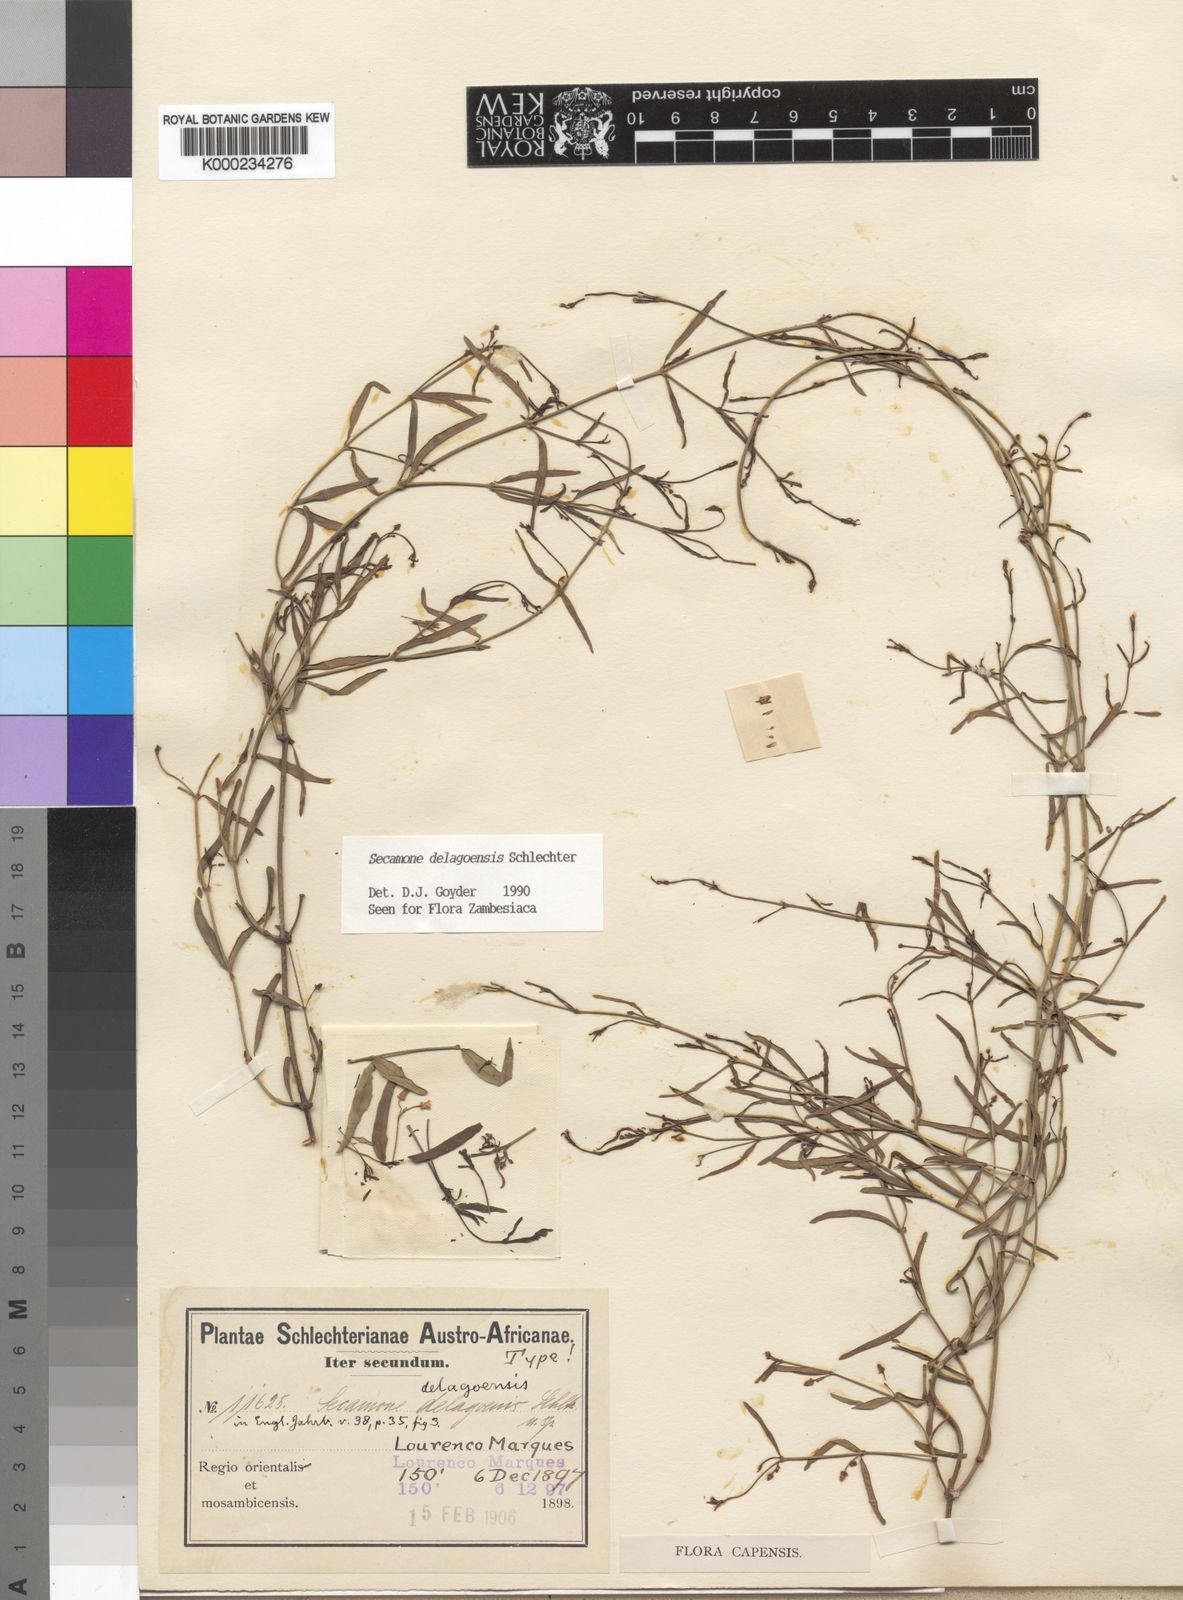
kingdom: Plantae
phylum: Tracheophyta
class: Magnoliopsida
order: Gentianales
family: Apocynaceae
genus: Secamone
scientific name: Secamone delagoensis
